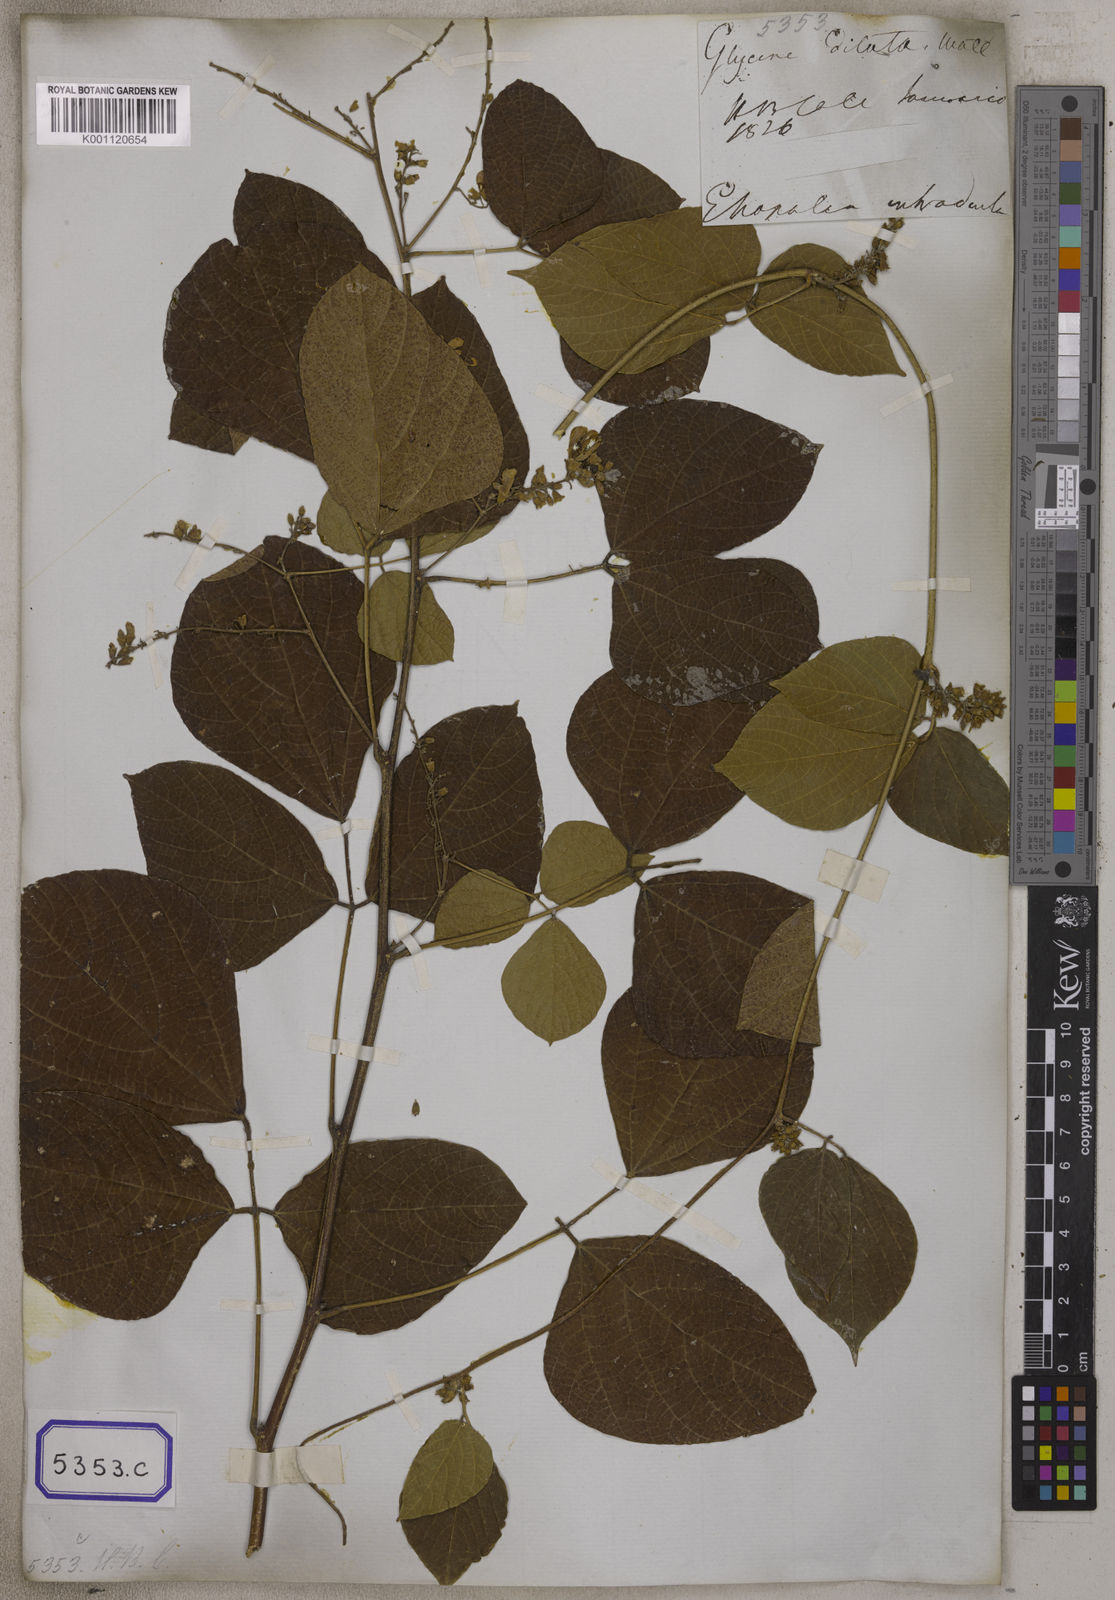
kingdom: Plantae
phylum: Tracheophyta
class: Magnoliopsida
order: Fabales
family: Fabaceae
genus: Haymondia
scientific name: Haymondia wallichii
